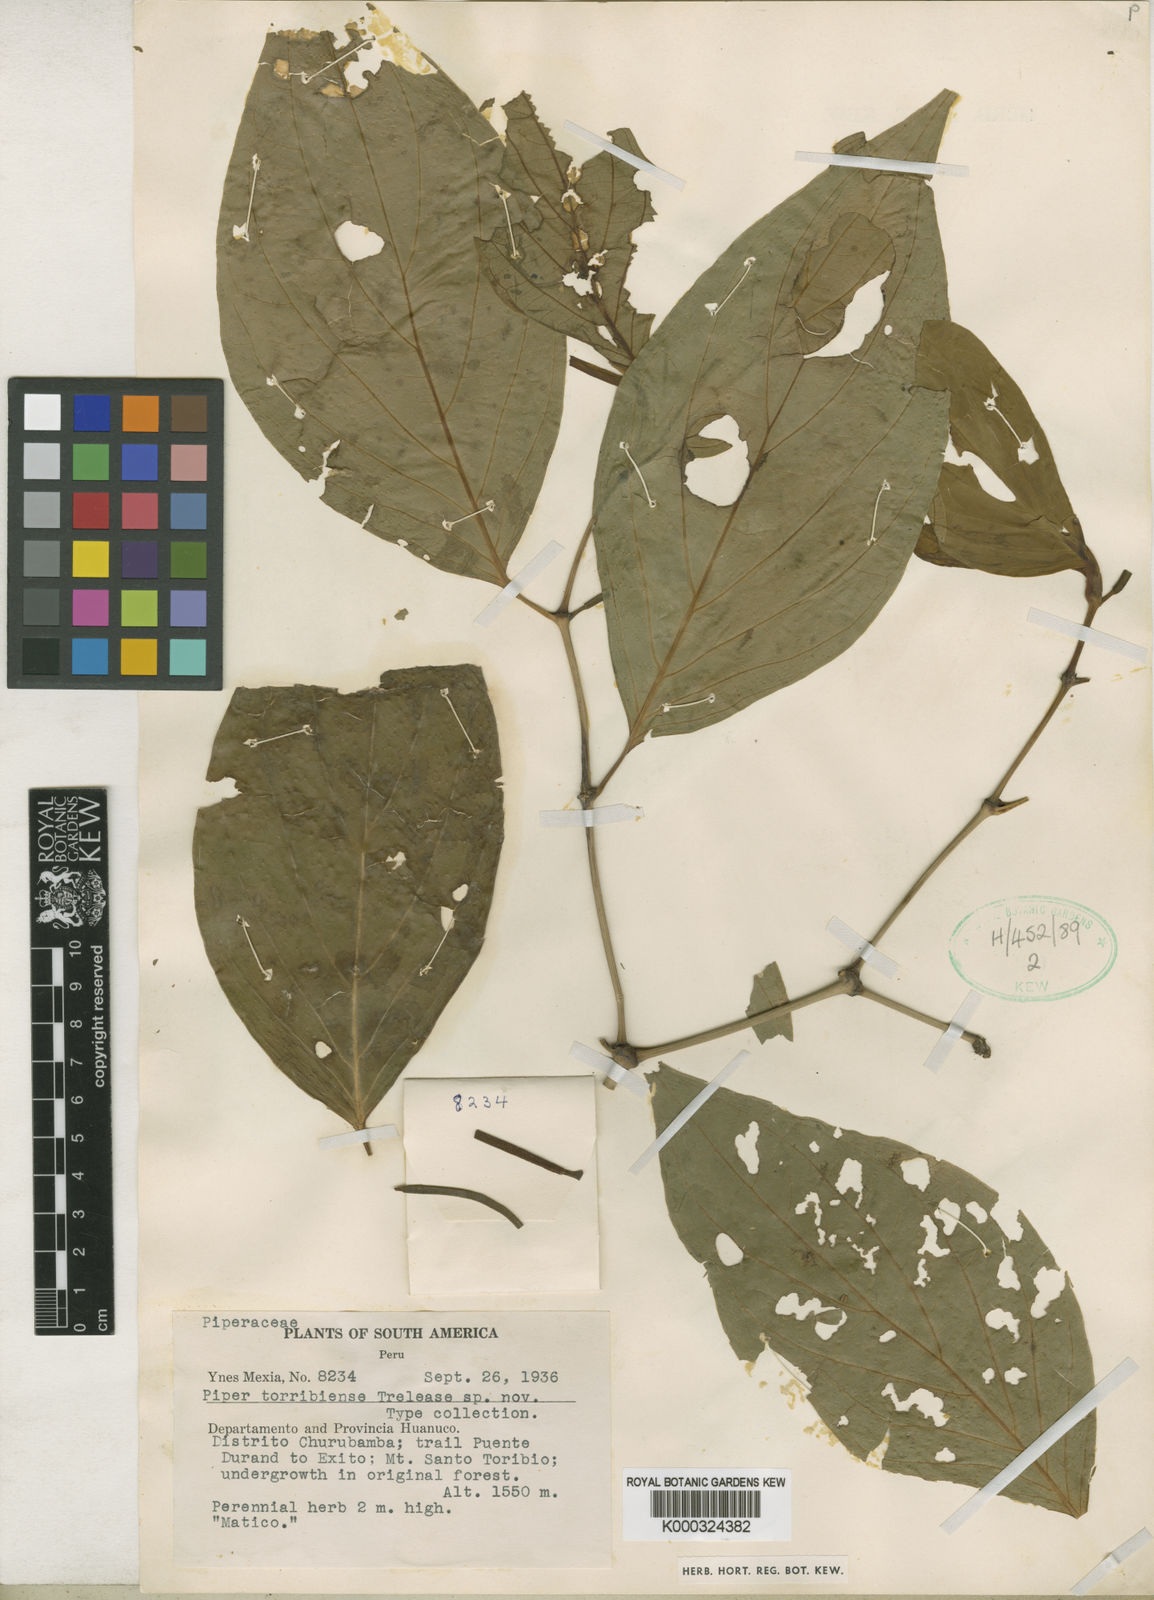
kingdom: Plantae
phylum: Tracheophyta
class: Magnoliopsida
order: Piperales
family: Piperaceae
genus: Piper
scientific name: Piper
